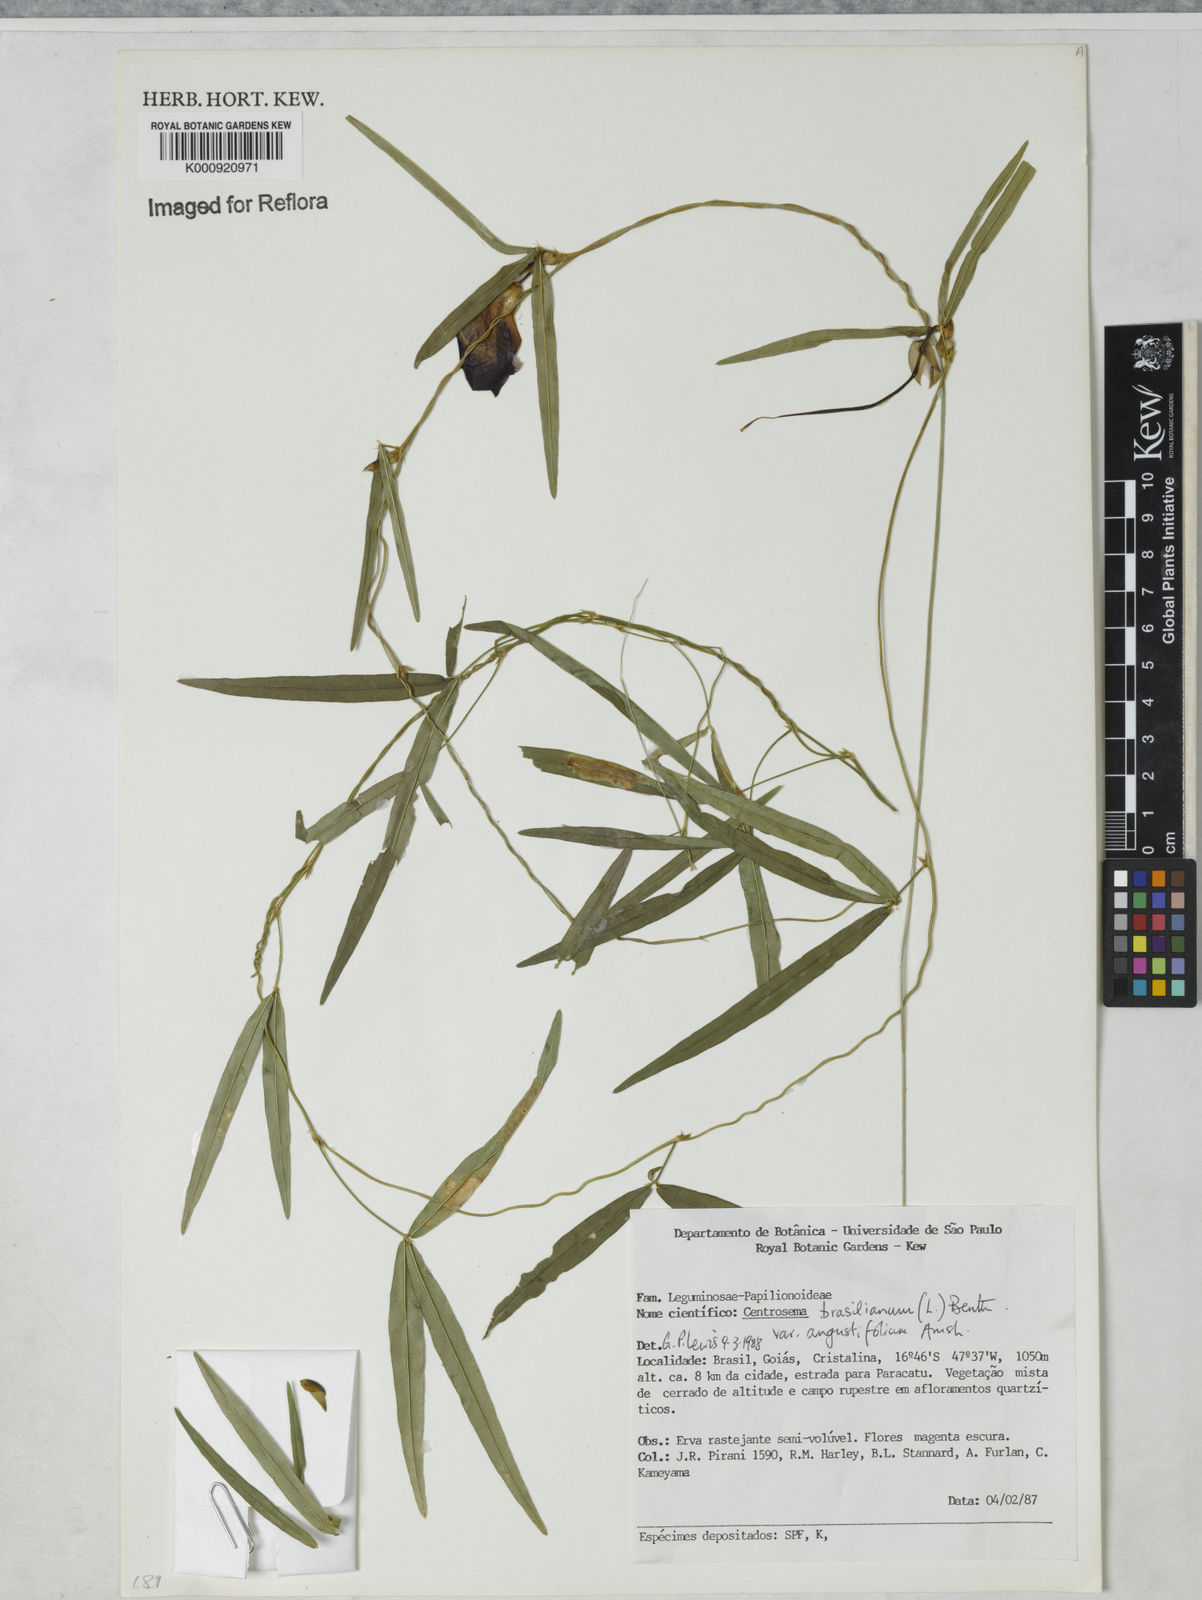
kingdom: Plantae
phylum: Tracheophyta
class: Magnoliopsida
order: Fabales
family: Fabaceae
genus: Centrosema
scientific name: Centrosema
